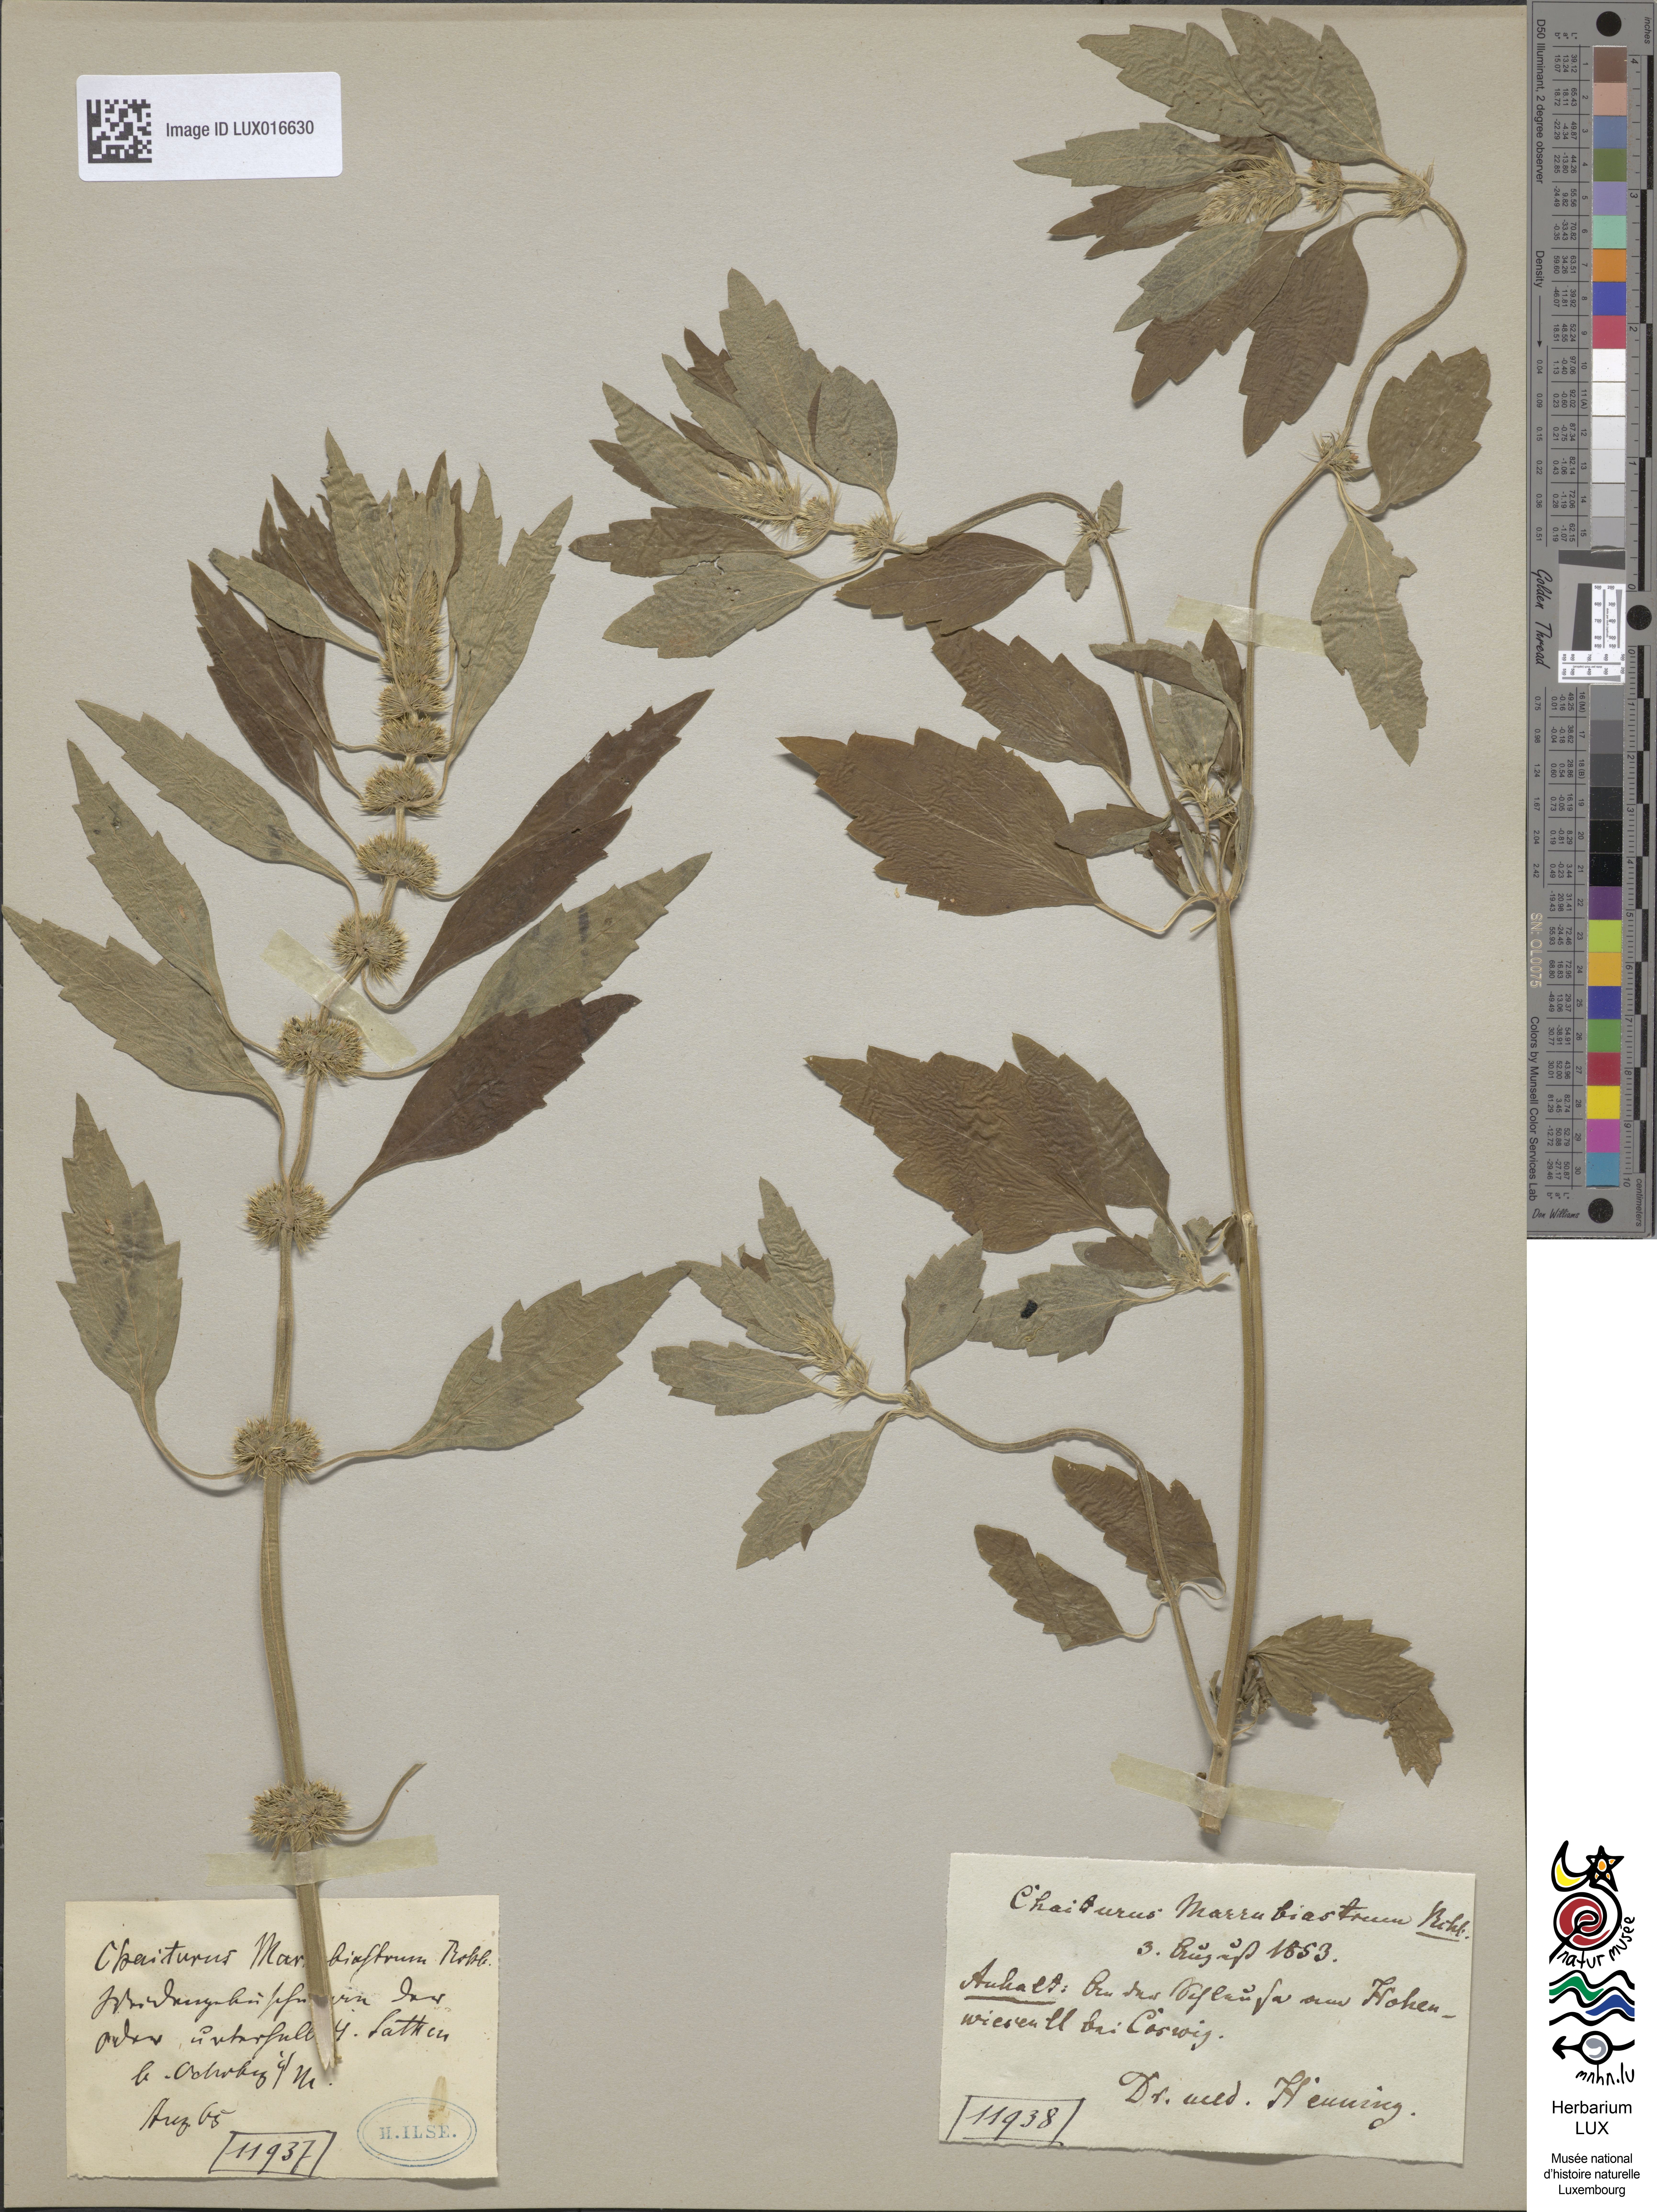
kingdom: Plantae
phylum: Tracheophyta
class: Magnoliopsida
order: Lamiales
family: Lamiaceae
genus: Chaiturus
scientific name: Chaiturus marrubiastrum
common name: Lion's tail
